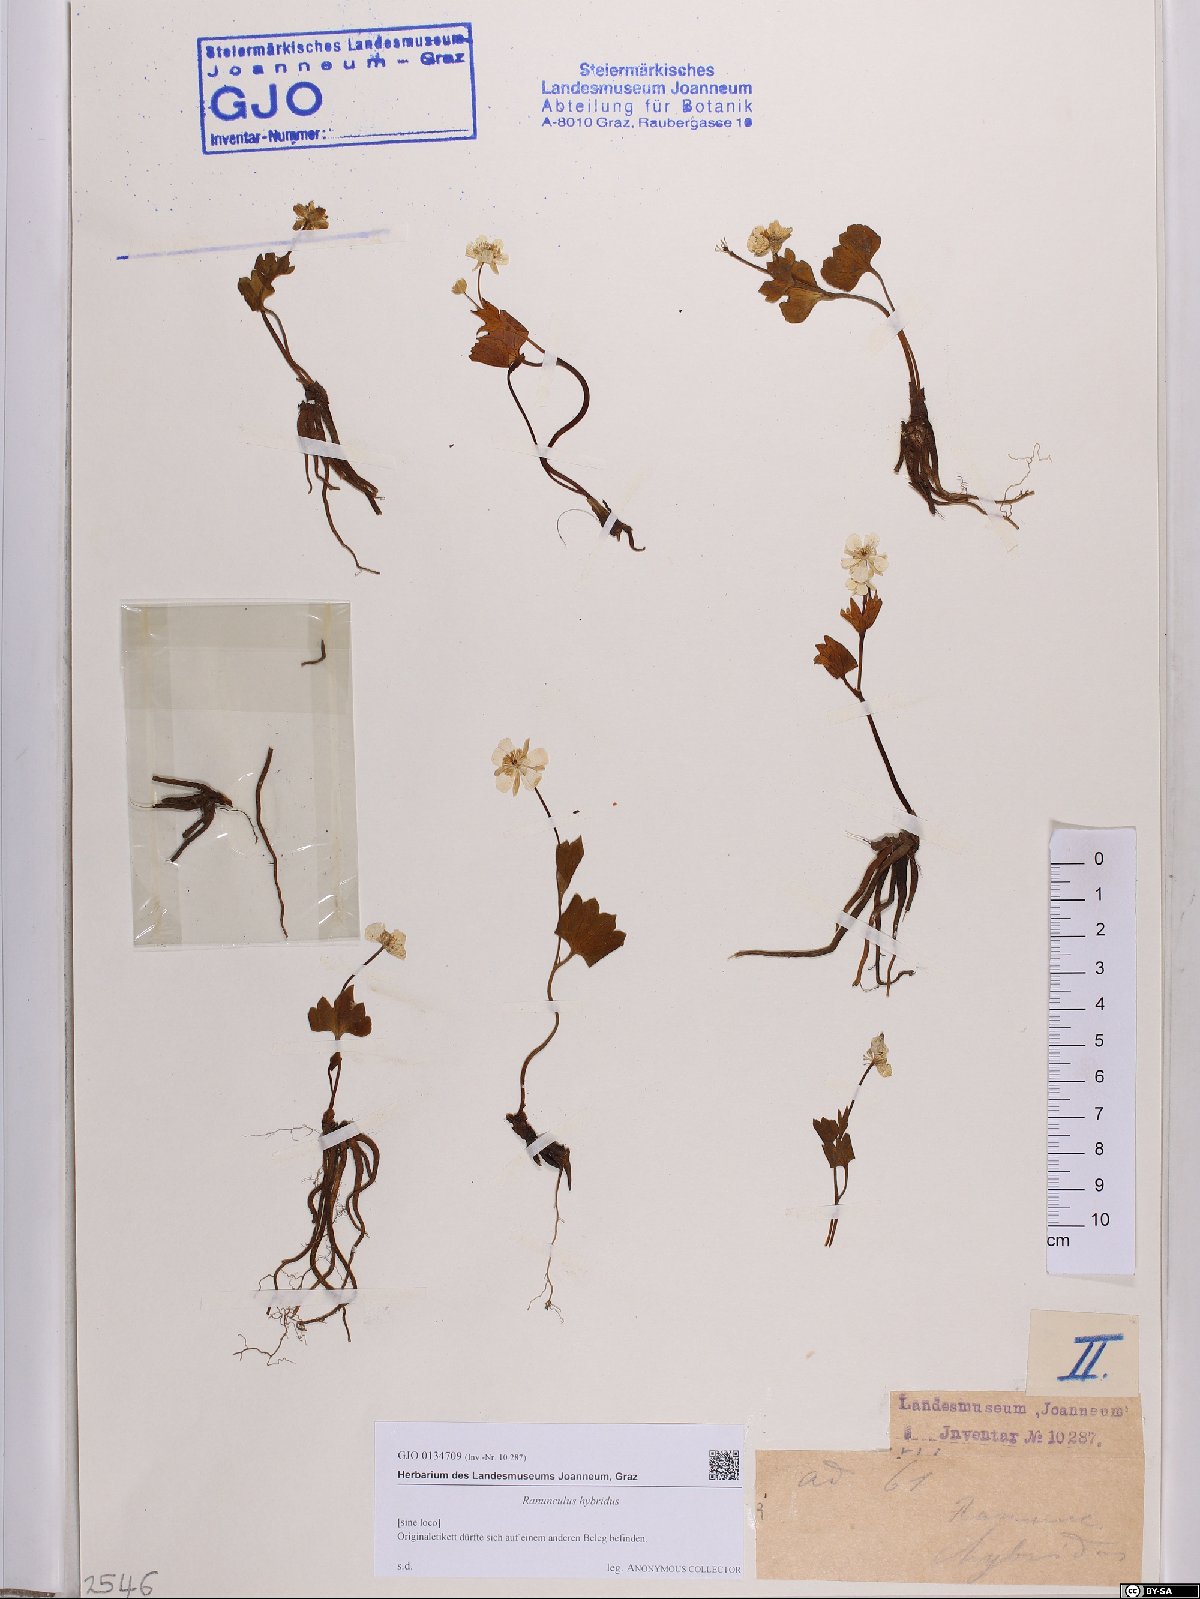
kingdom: Plantae
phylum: Tracheophyta
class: Magnoliopsida
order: Ranunculales
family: Ranunculaceae
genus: Ranunculus
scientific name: Ranunculus hybridus
